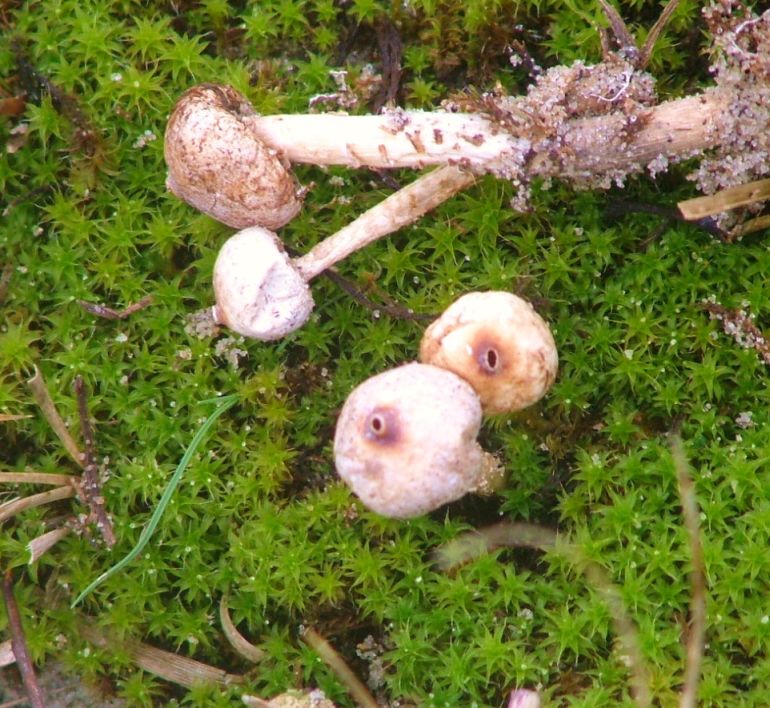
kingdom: Fungi
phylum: Basidiomycota
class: Agaricomycetes
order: Agaricales
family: Agaricaceae
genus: Tulostoma
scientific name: Tulostoma brumale
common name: vinter-stilkbovist
